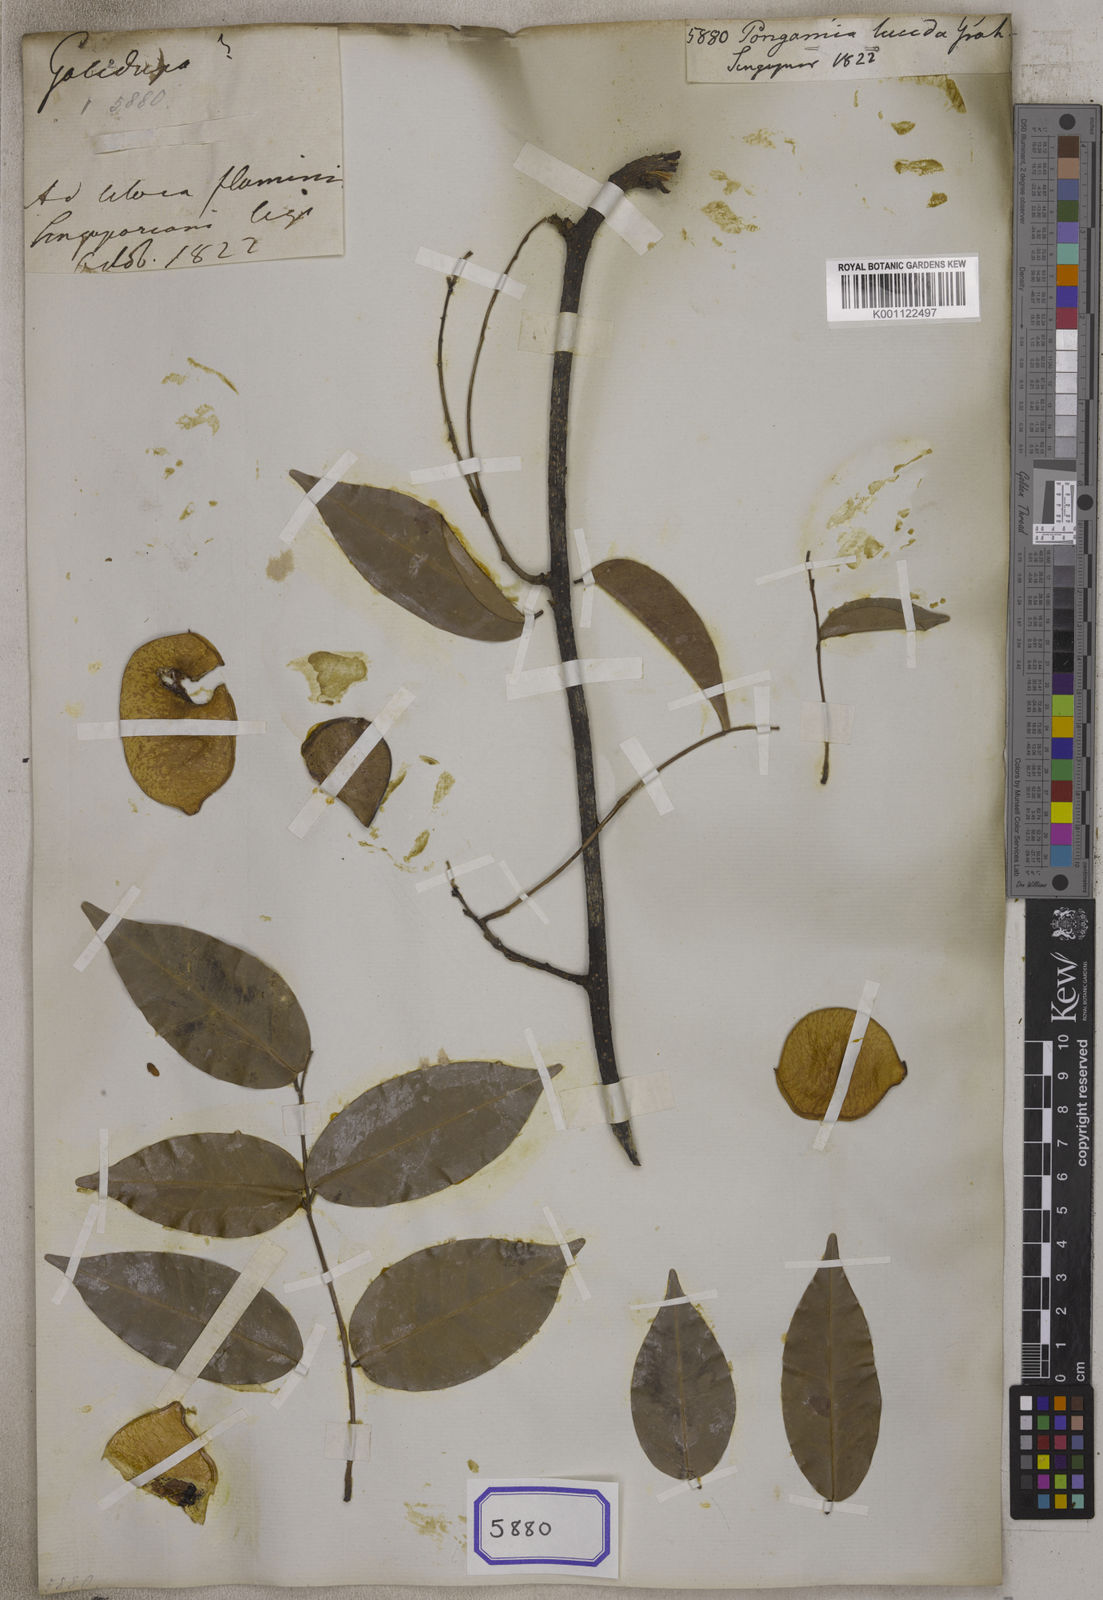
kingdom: Plantae
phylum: Tracheophyta
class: Magnoliopsida
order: Fabales
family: Fabaceae
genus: Derris
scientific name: Derris trifoliata
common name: Three-leaf derris
